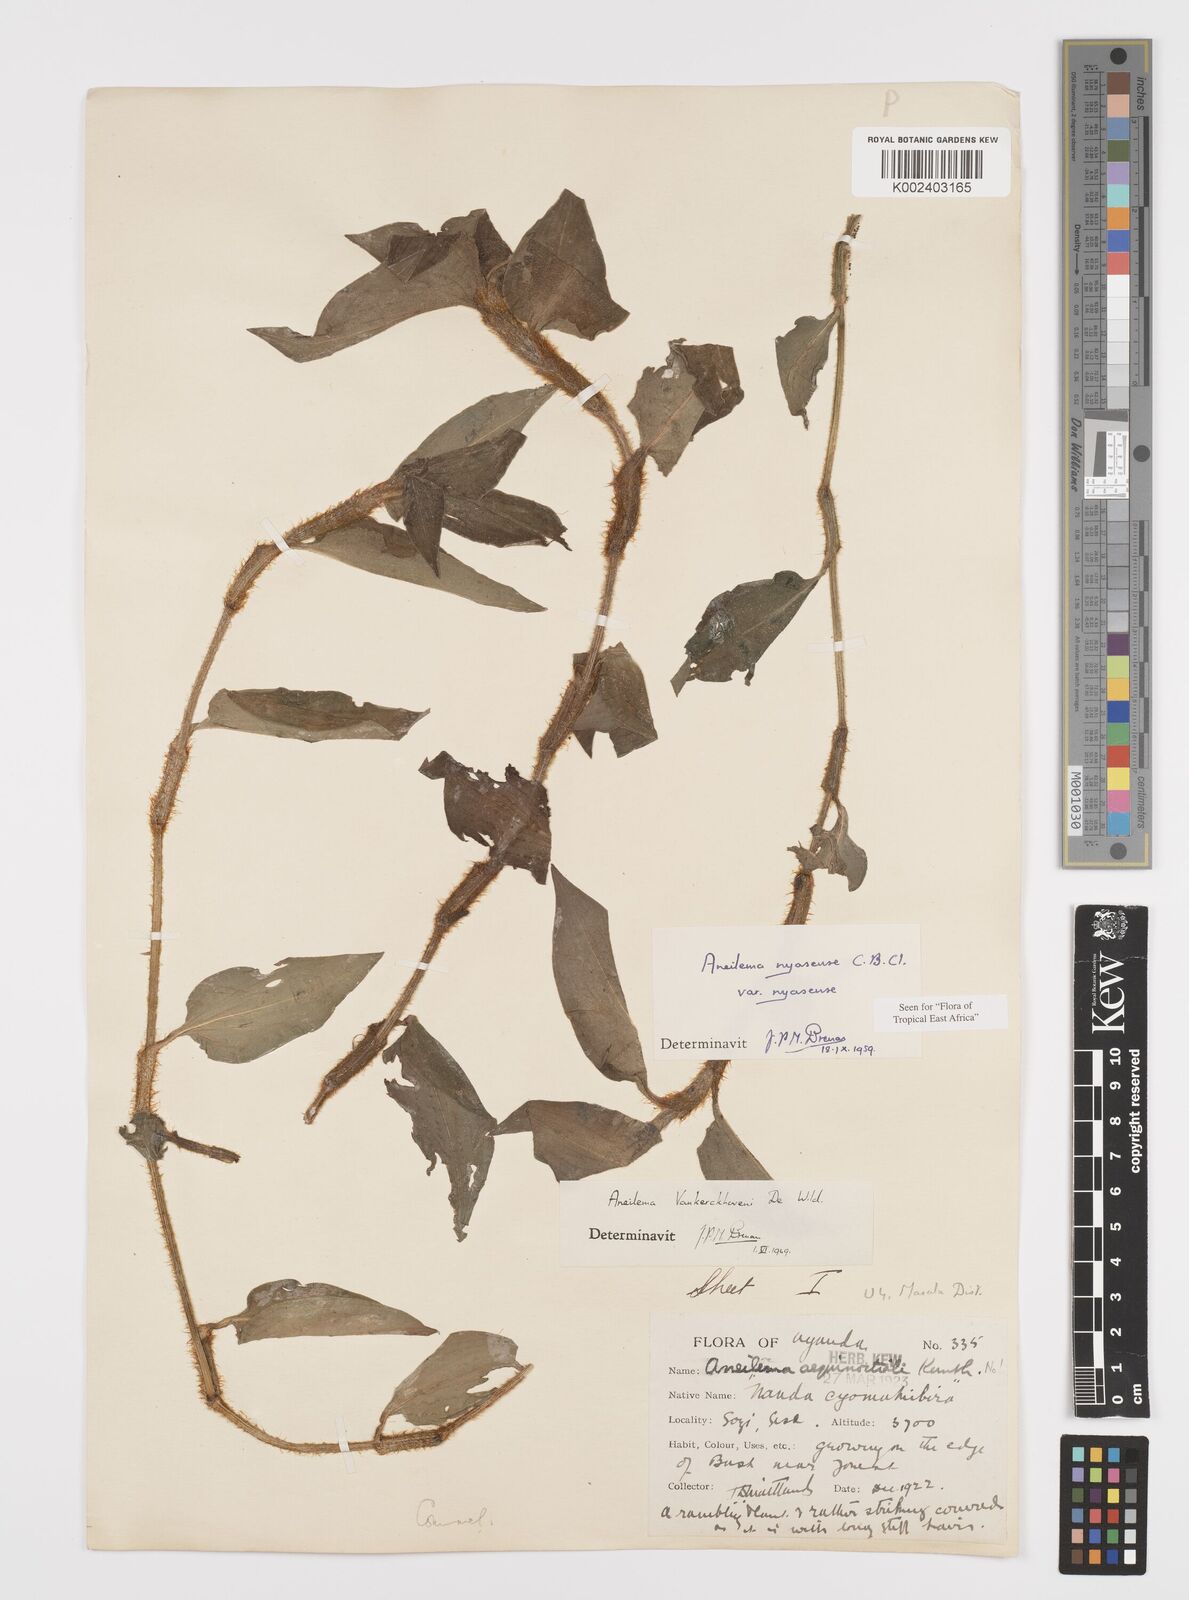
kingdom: Plantae
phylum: Tracheophyta
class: Liliopsida
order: Commelinales
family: Commelinaceae
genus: Aneilema
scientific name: Aneilema nyasense
